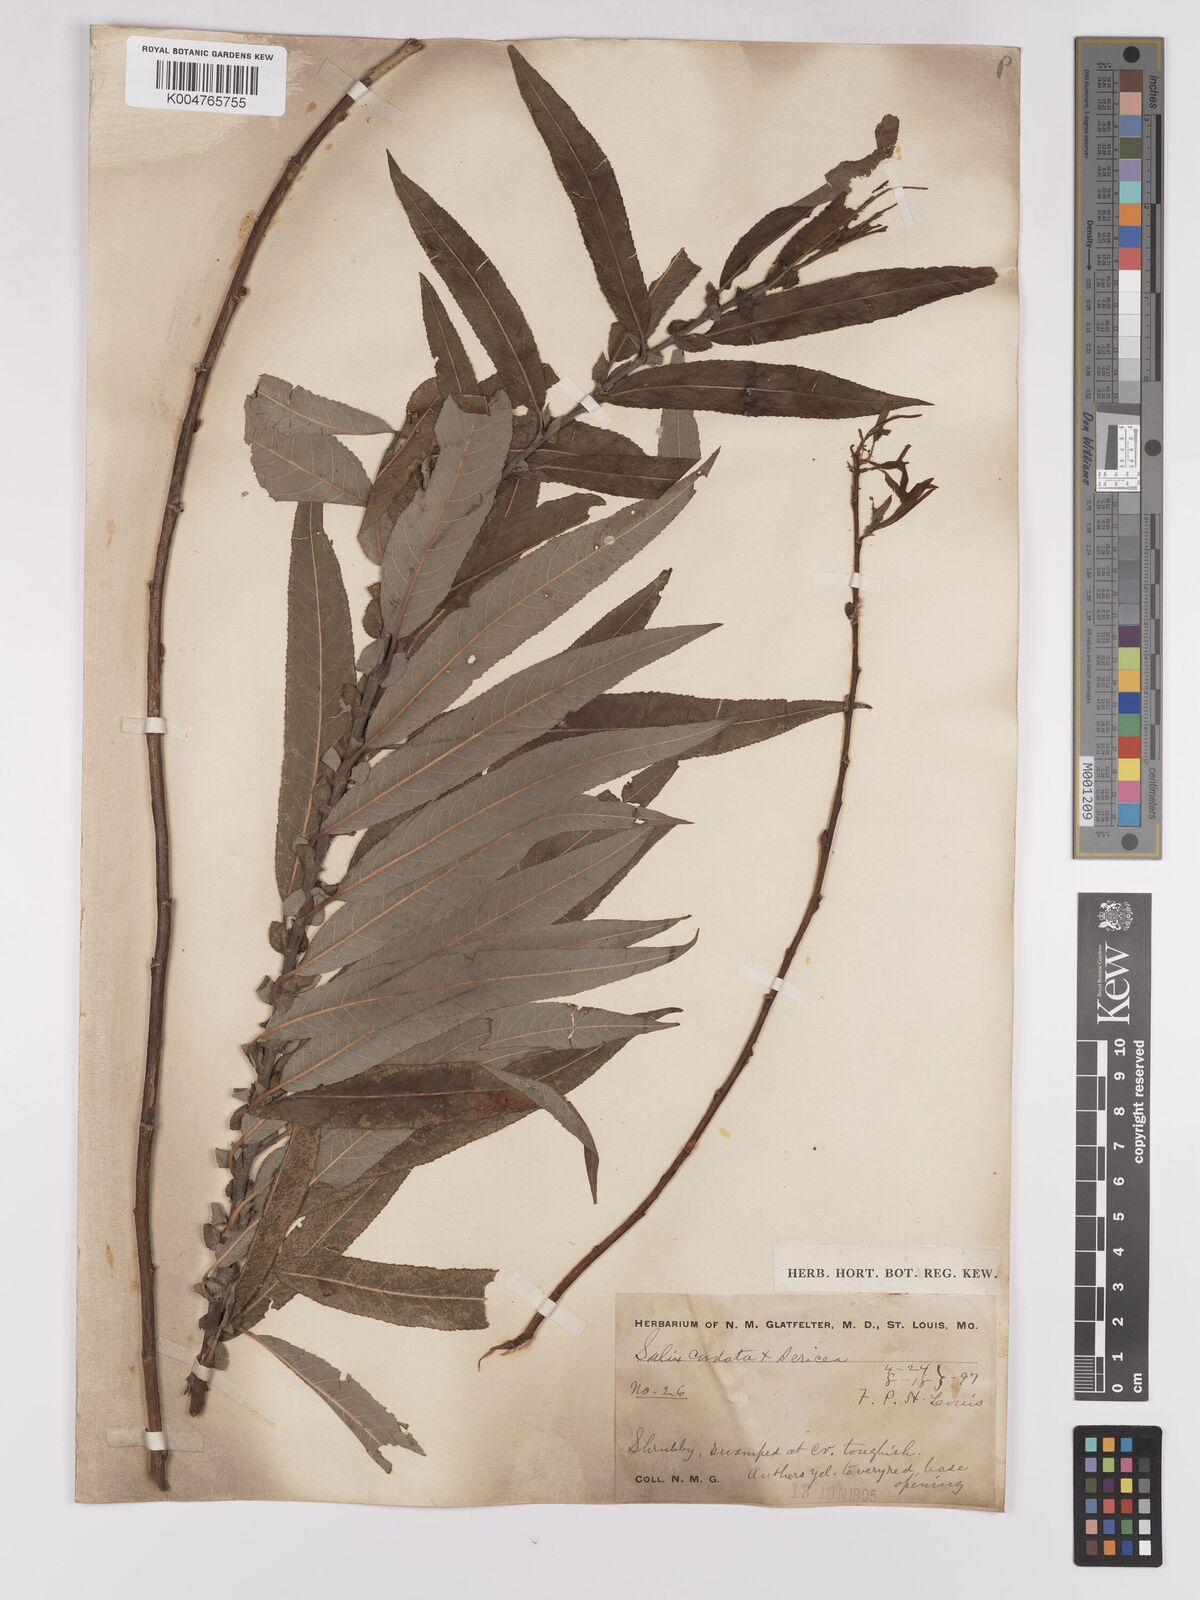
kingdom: Plantae
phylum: Tracheophyta
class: Magnoliopsida
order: Malpighiales
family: Salicaceae
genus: Salix
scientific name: Salix cordata
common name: Heart-leaf willow
